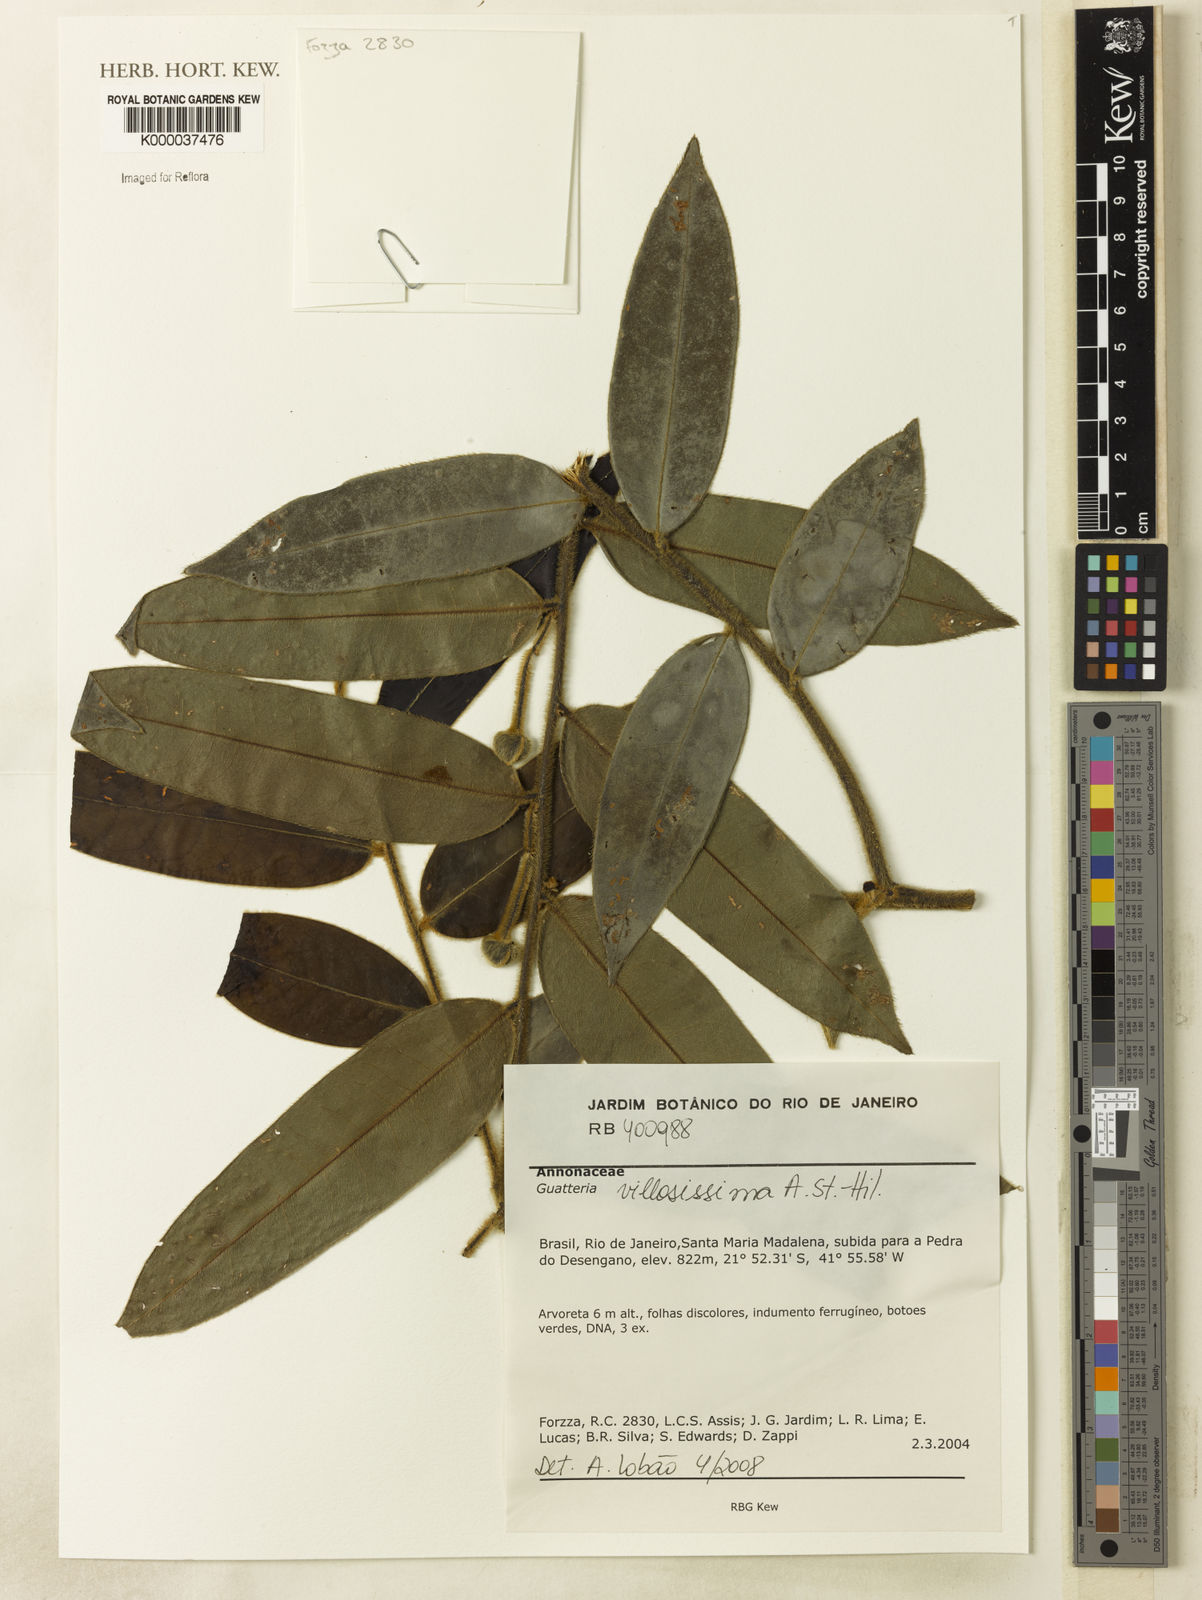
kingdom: Plantae
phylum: Tracheophyta
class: Magnoliopsida
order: Magnoliales
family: Annonaceae
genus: Guatteria
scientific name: Guatteria
